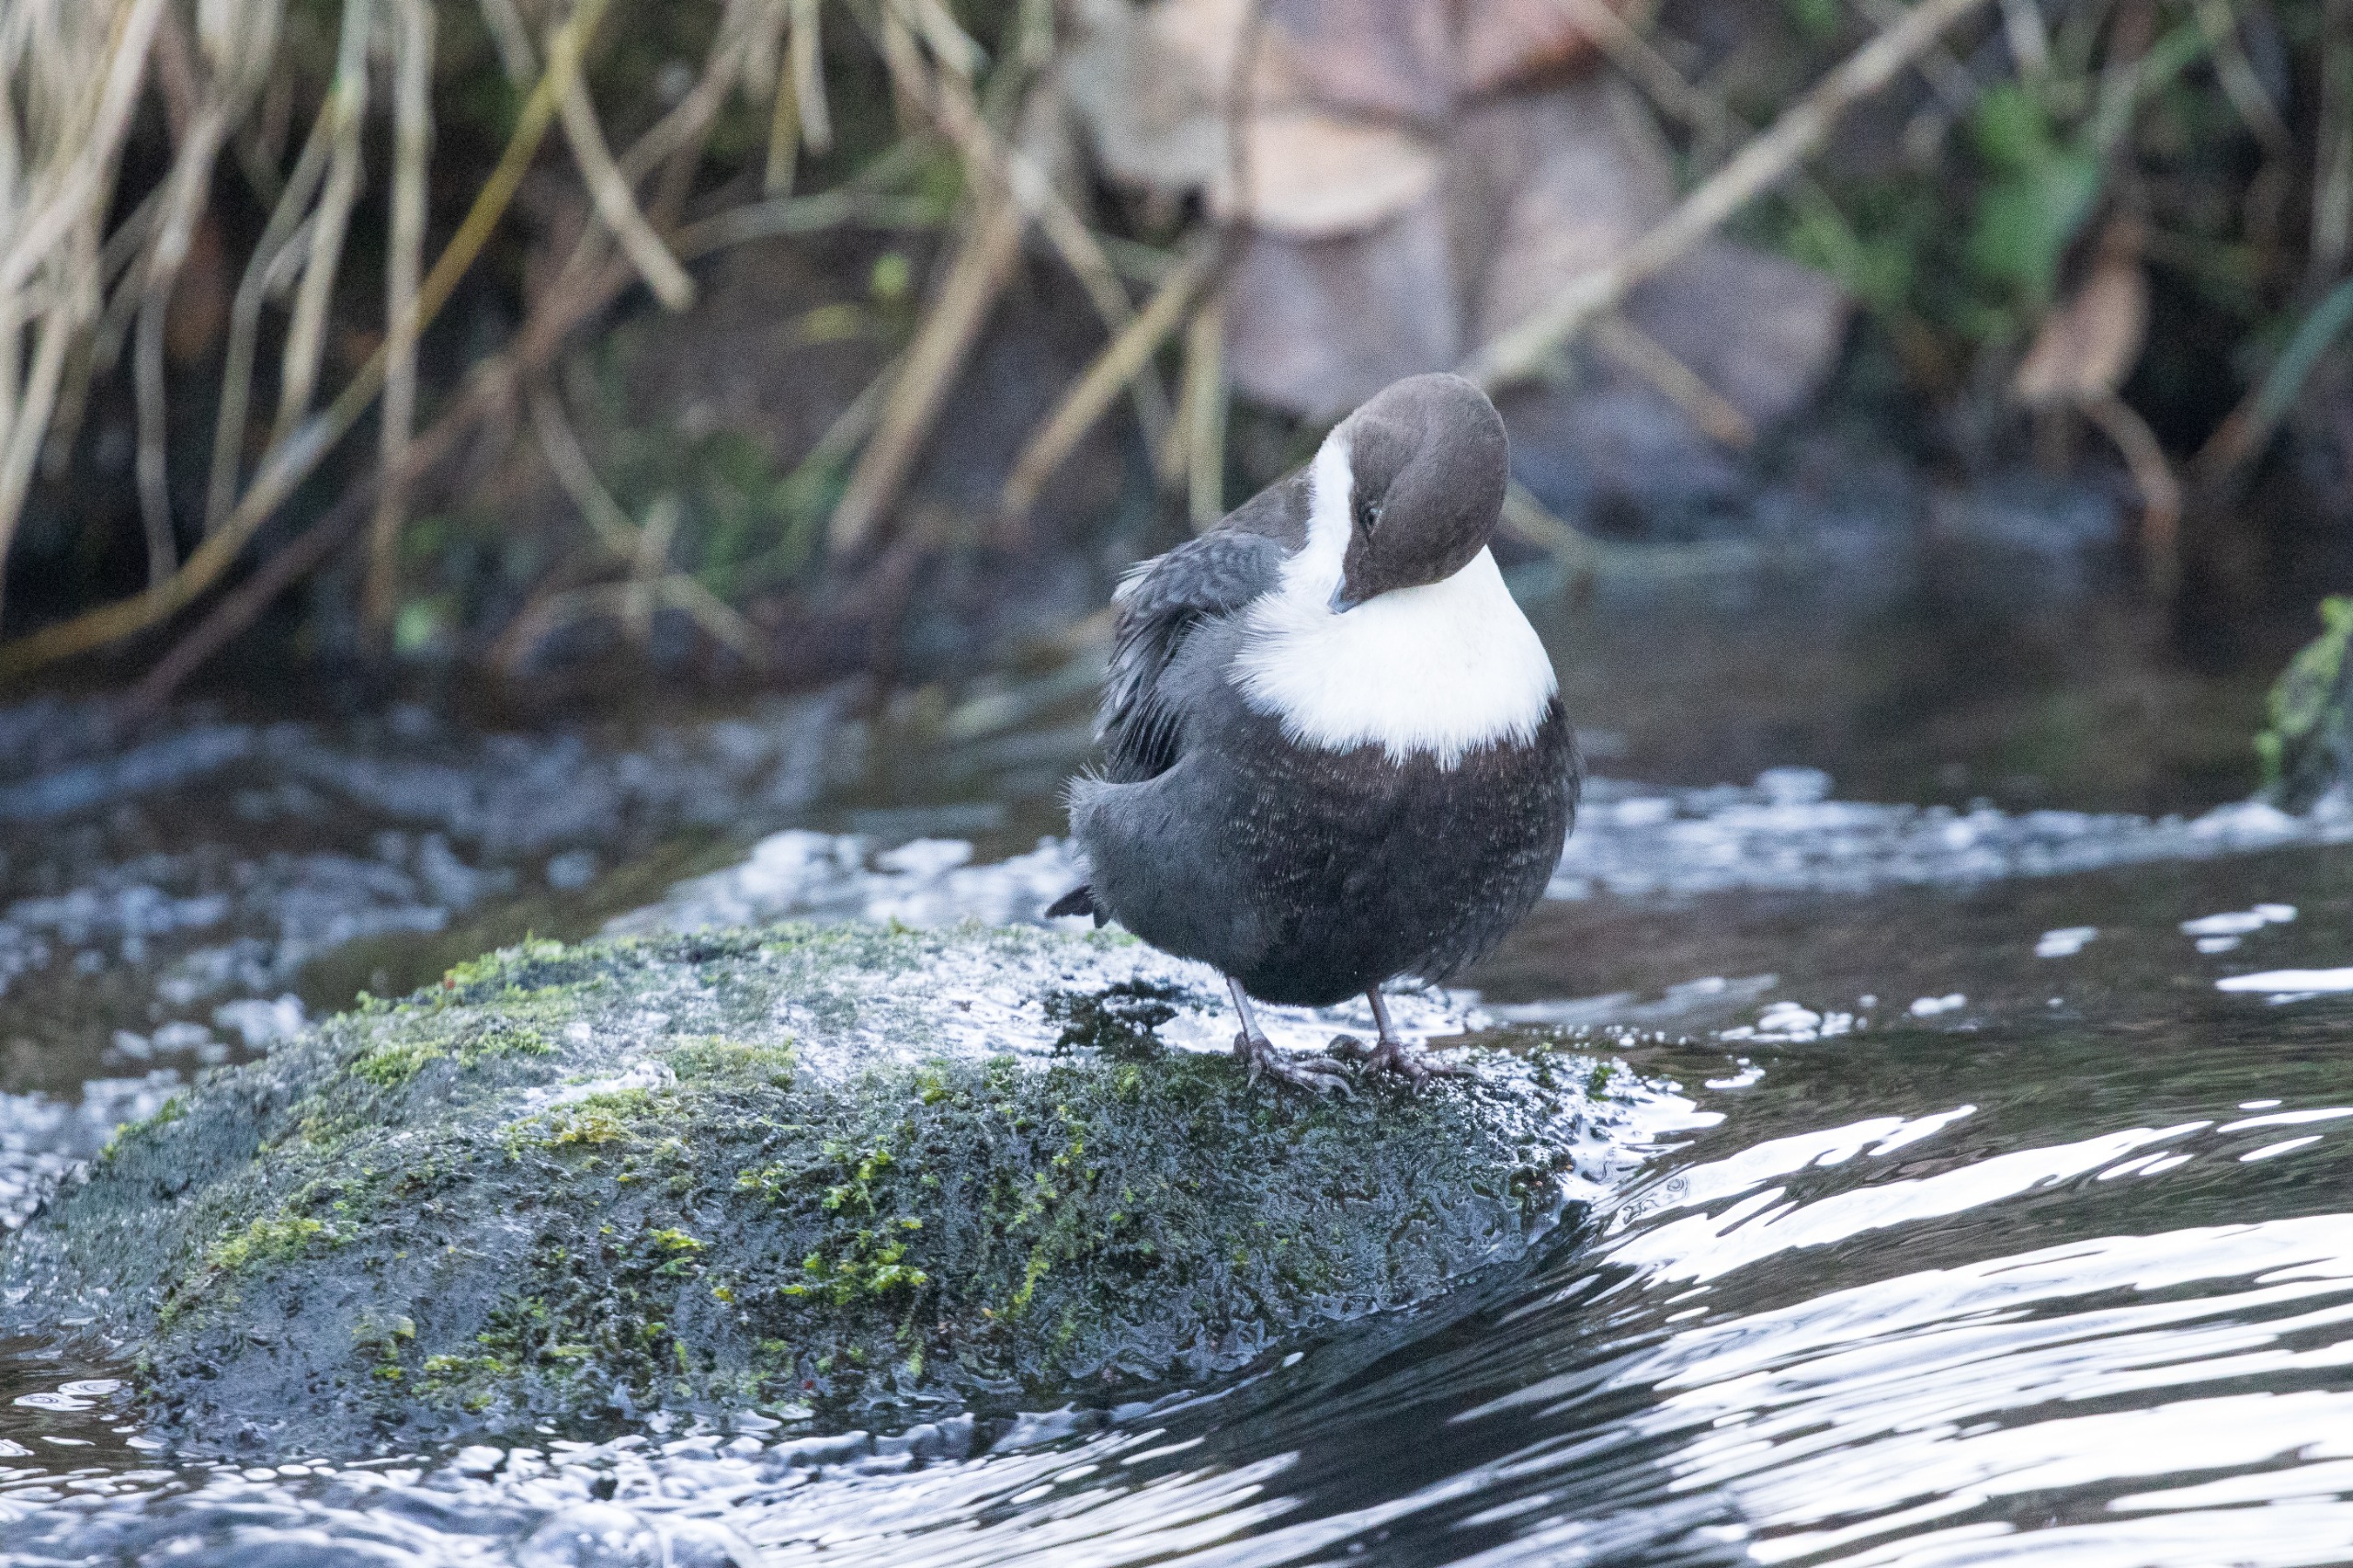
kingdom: Animalia
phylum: Chordata
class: Aves
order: Passeriformes
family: Cinclidae
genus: Cinclus
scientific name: Cinclus cinclus
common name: Vandstær
